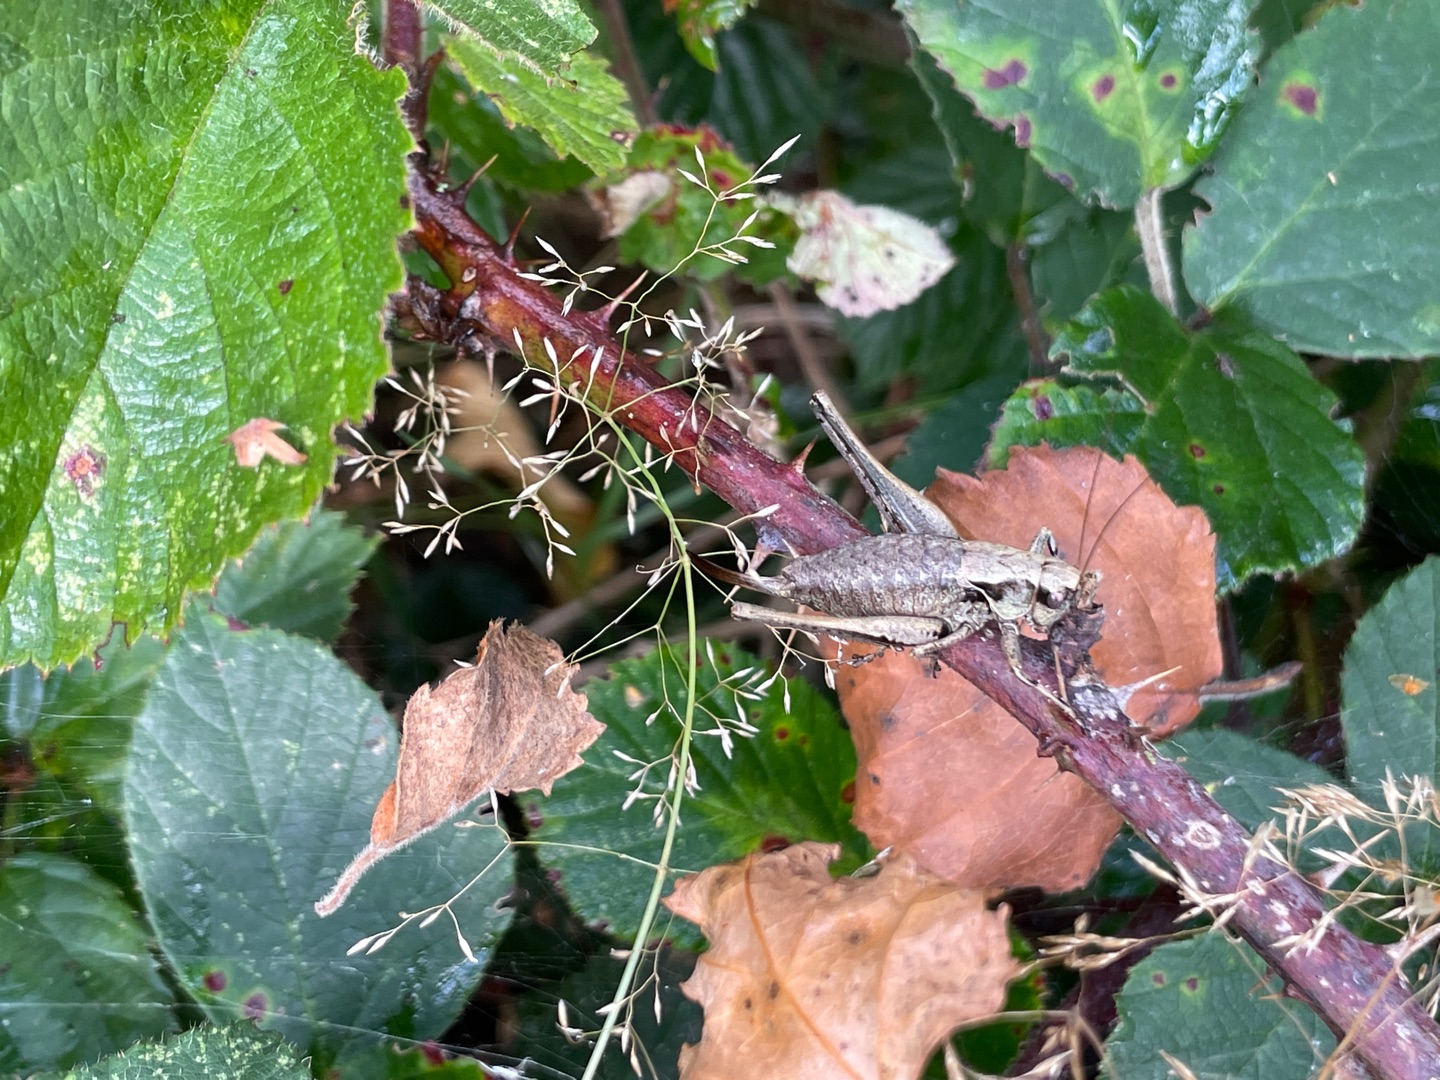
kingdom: Animalia
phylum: Arthropoda
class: Insecta
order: Orthoptera
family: Tettigoniidae
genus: Pholidoptera
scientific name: Pholidoptera griseoaptera
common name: Buskgræshoppe
